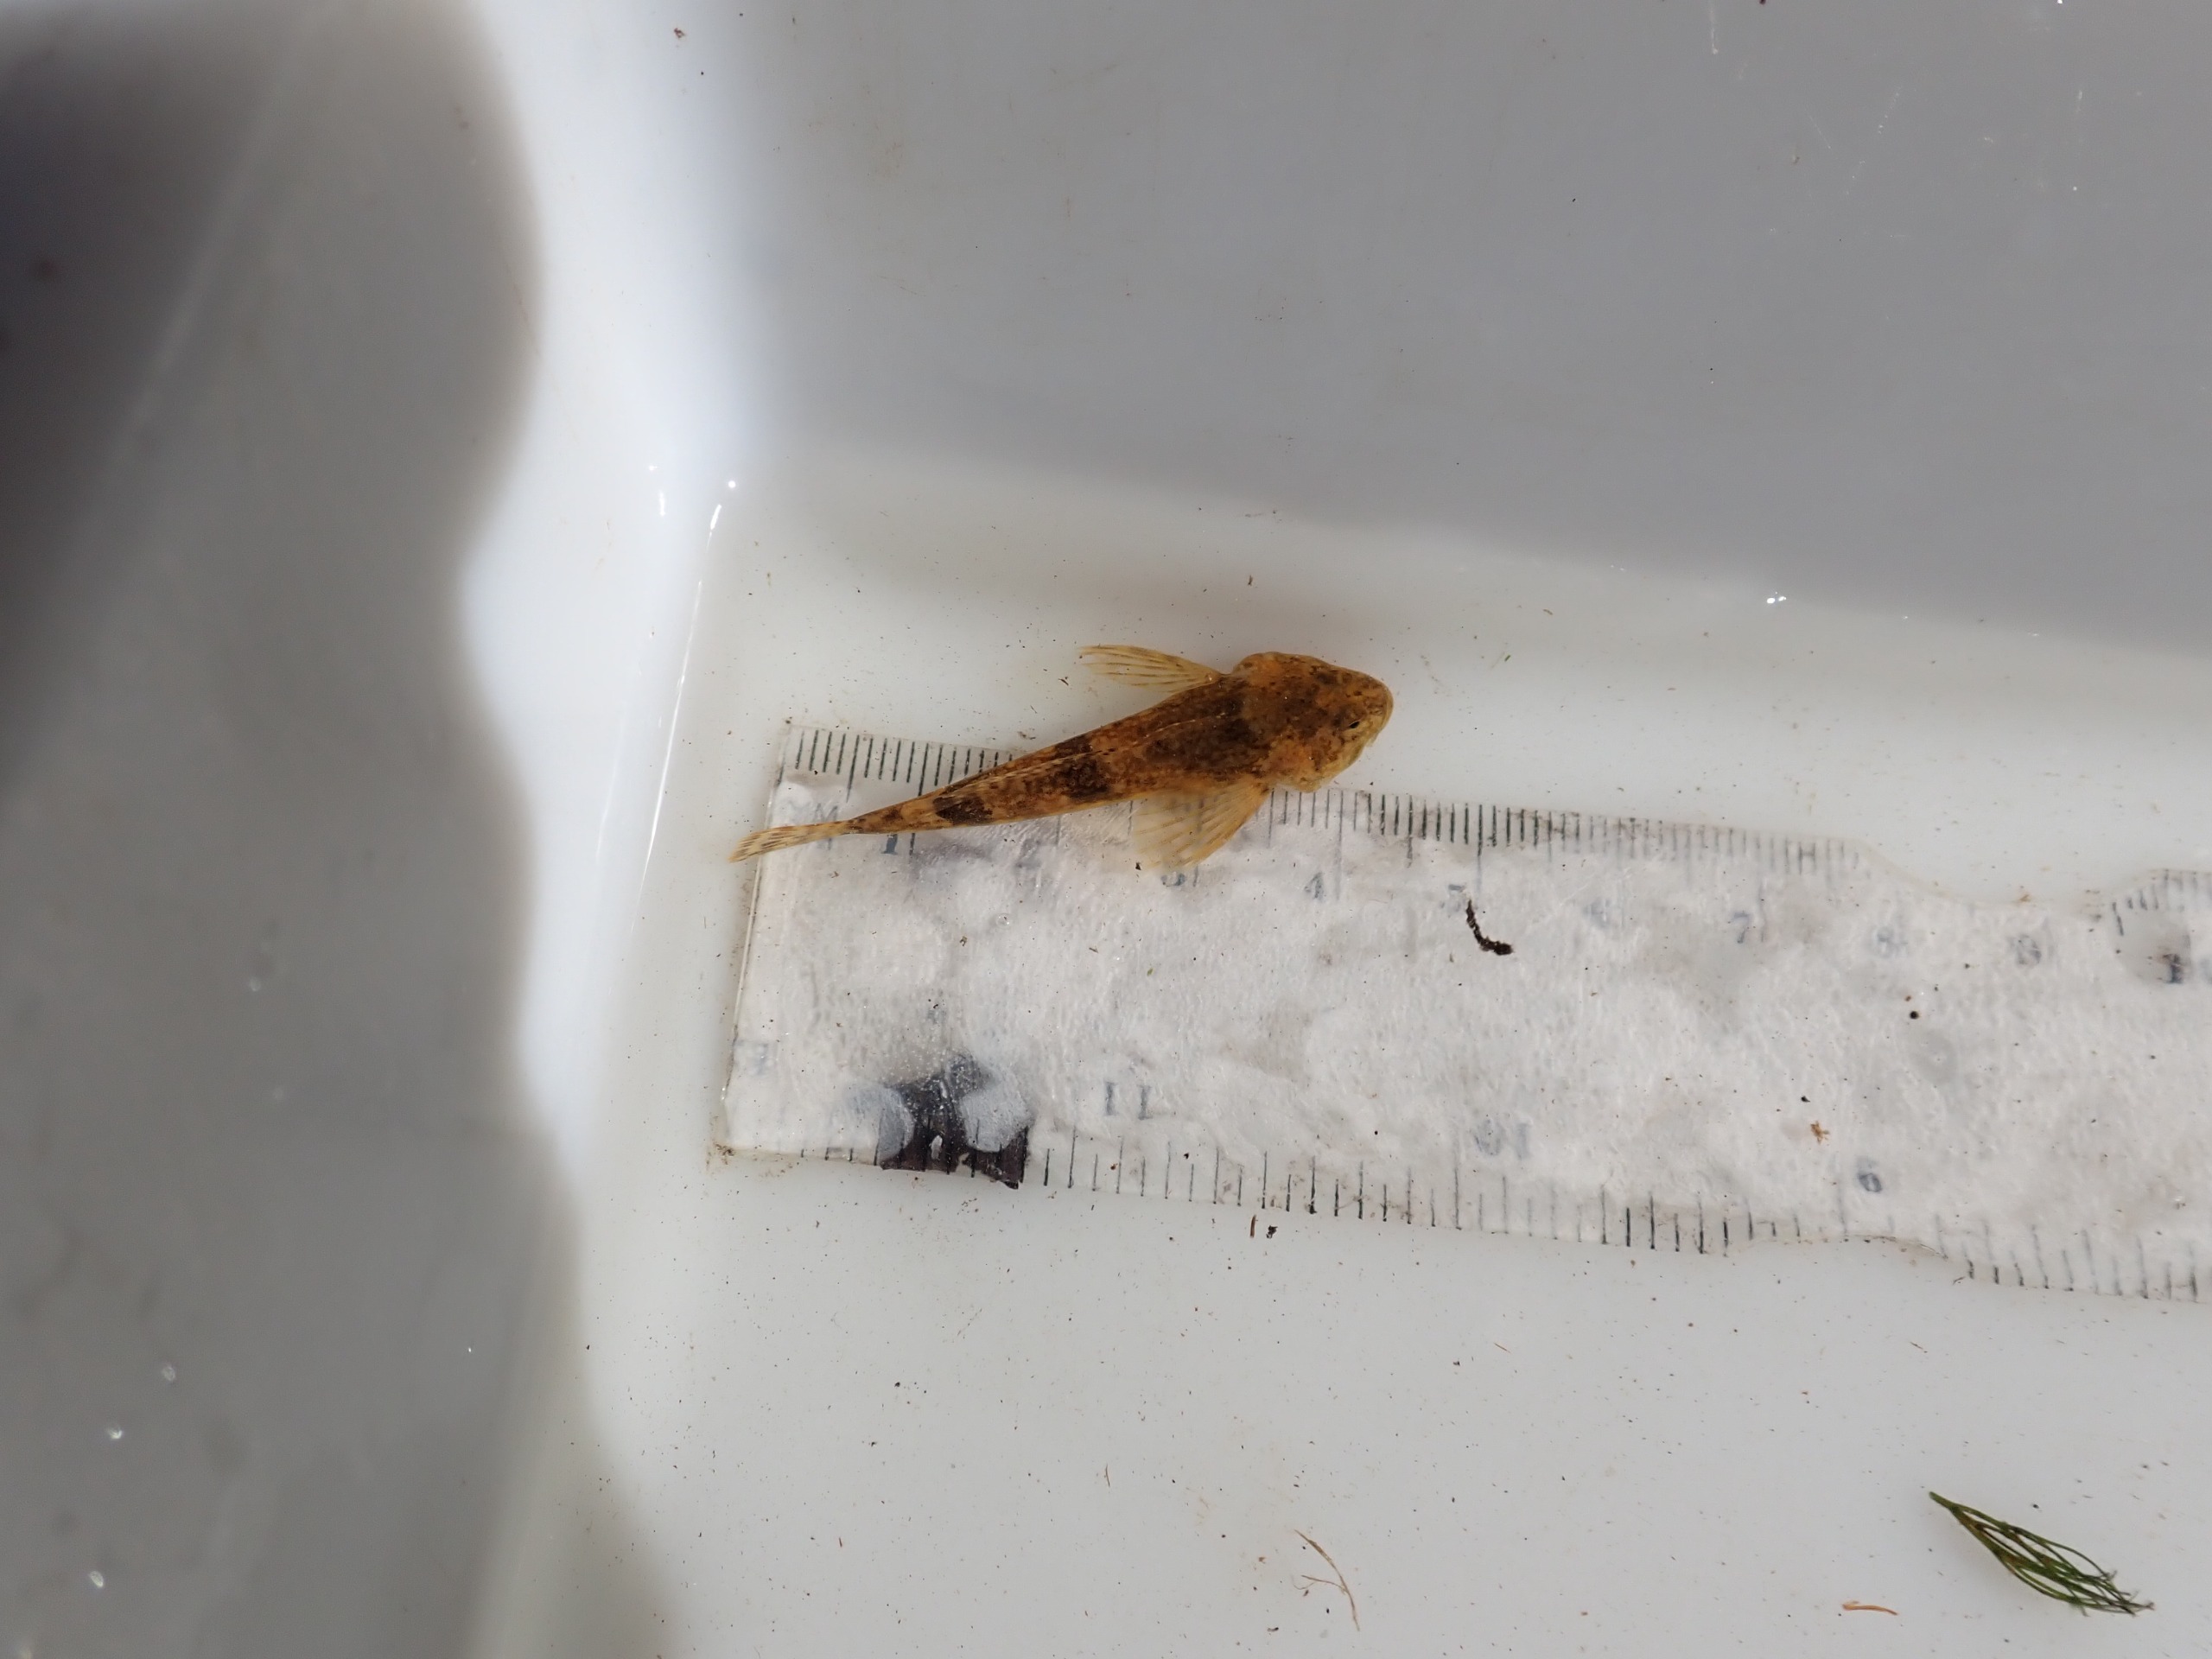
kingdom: Animalia
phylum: Chordata
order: Scorpaeniformes
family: Cottidae
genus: Cottus
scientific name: Cottus poecilopus
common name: Finnestribet ferskvandsulk
